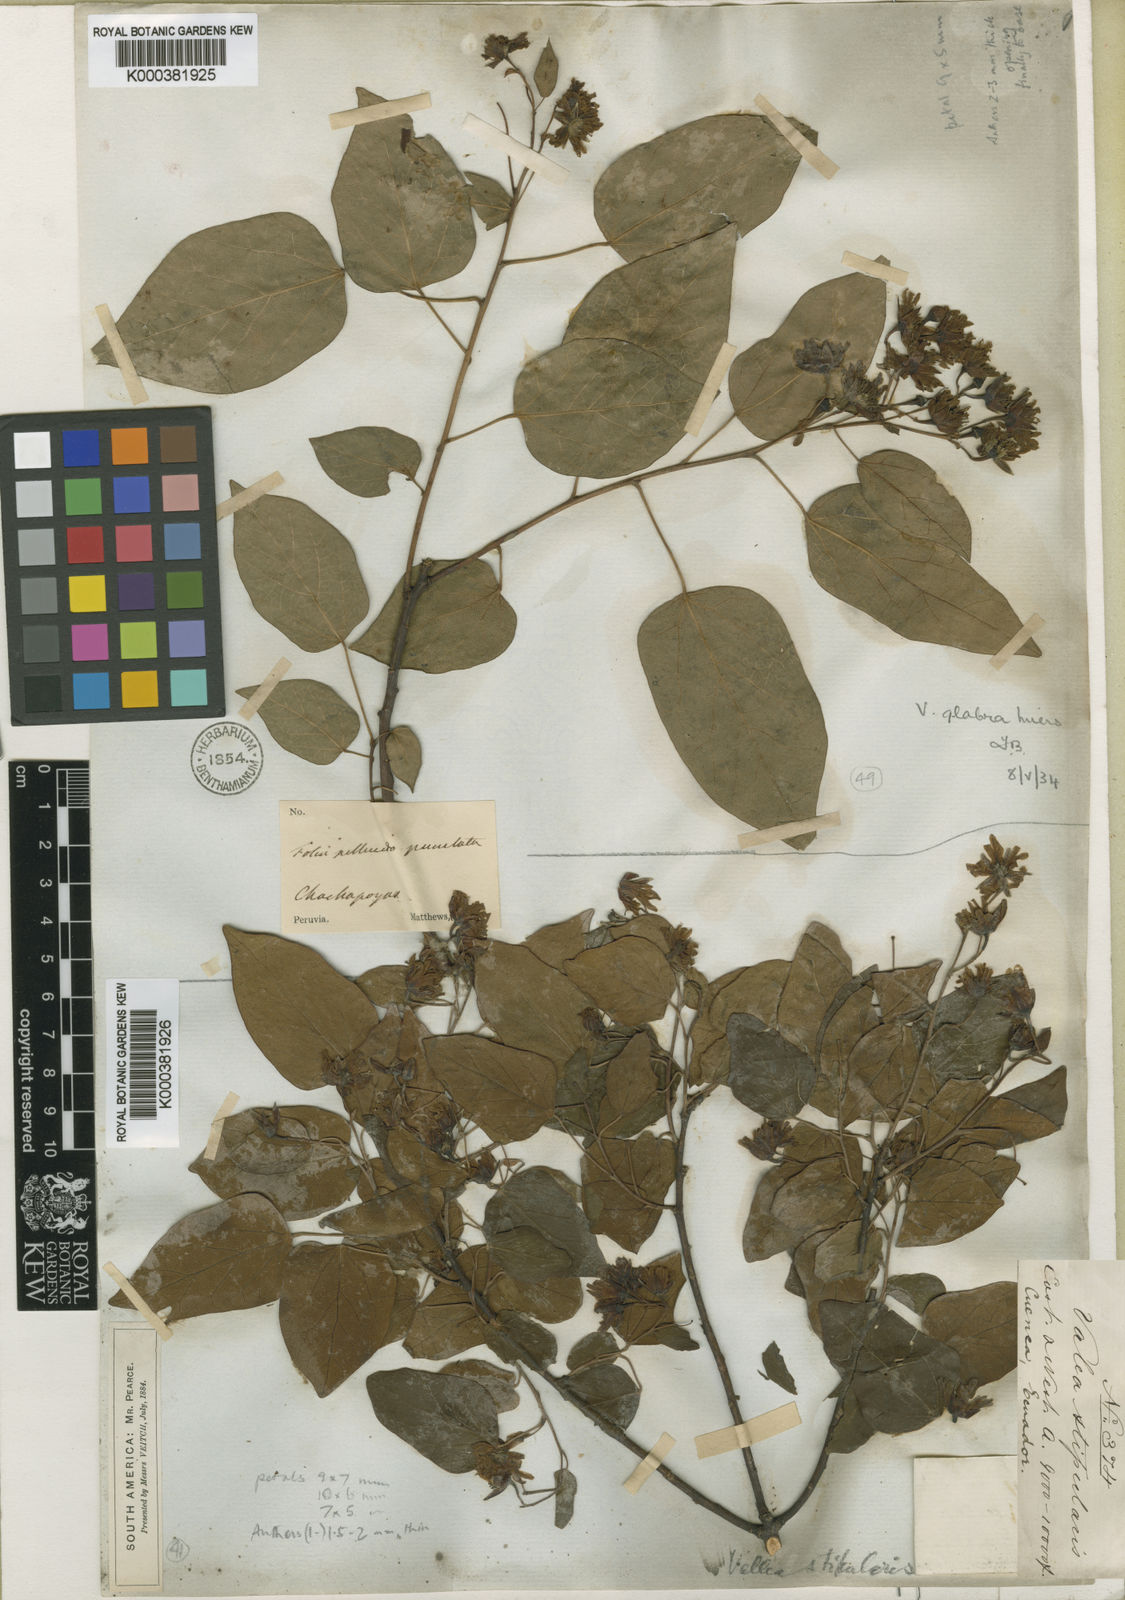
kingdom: Plantae
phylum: Tracheophyta
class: Magnoliopsida
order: Oxalidales
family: Elaeocarpaceae
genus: Vallea
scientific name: Vallea stipularis
